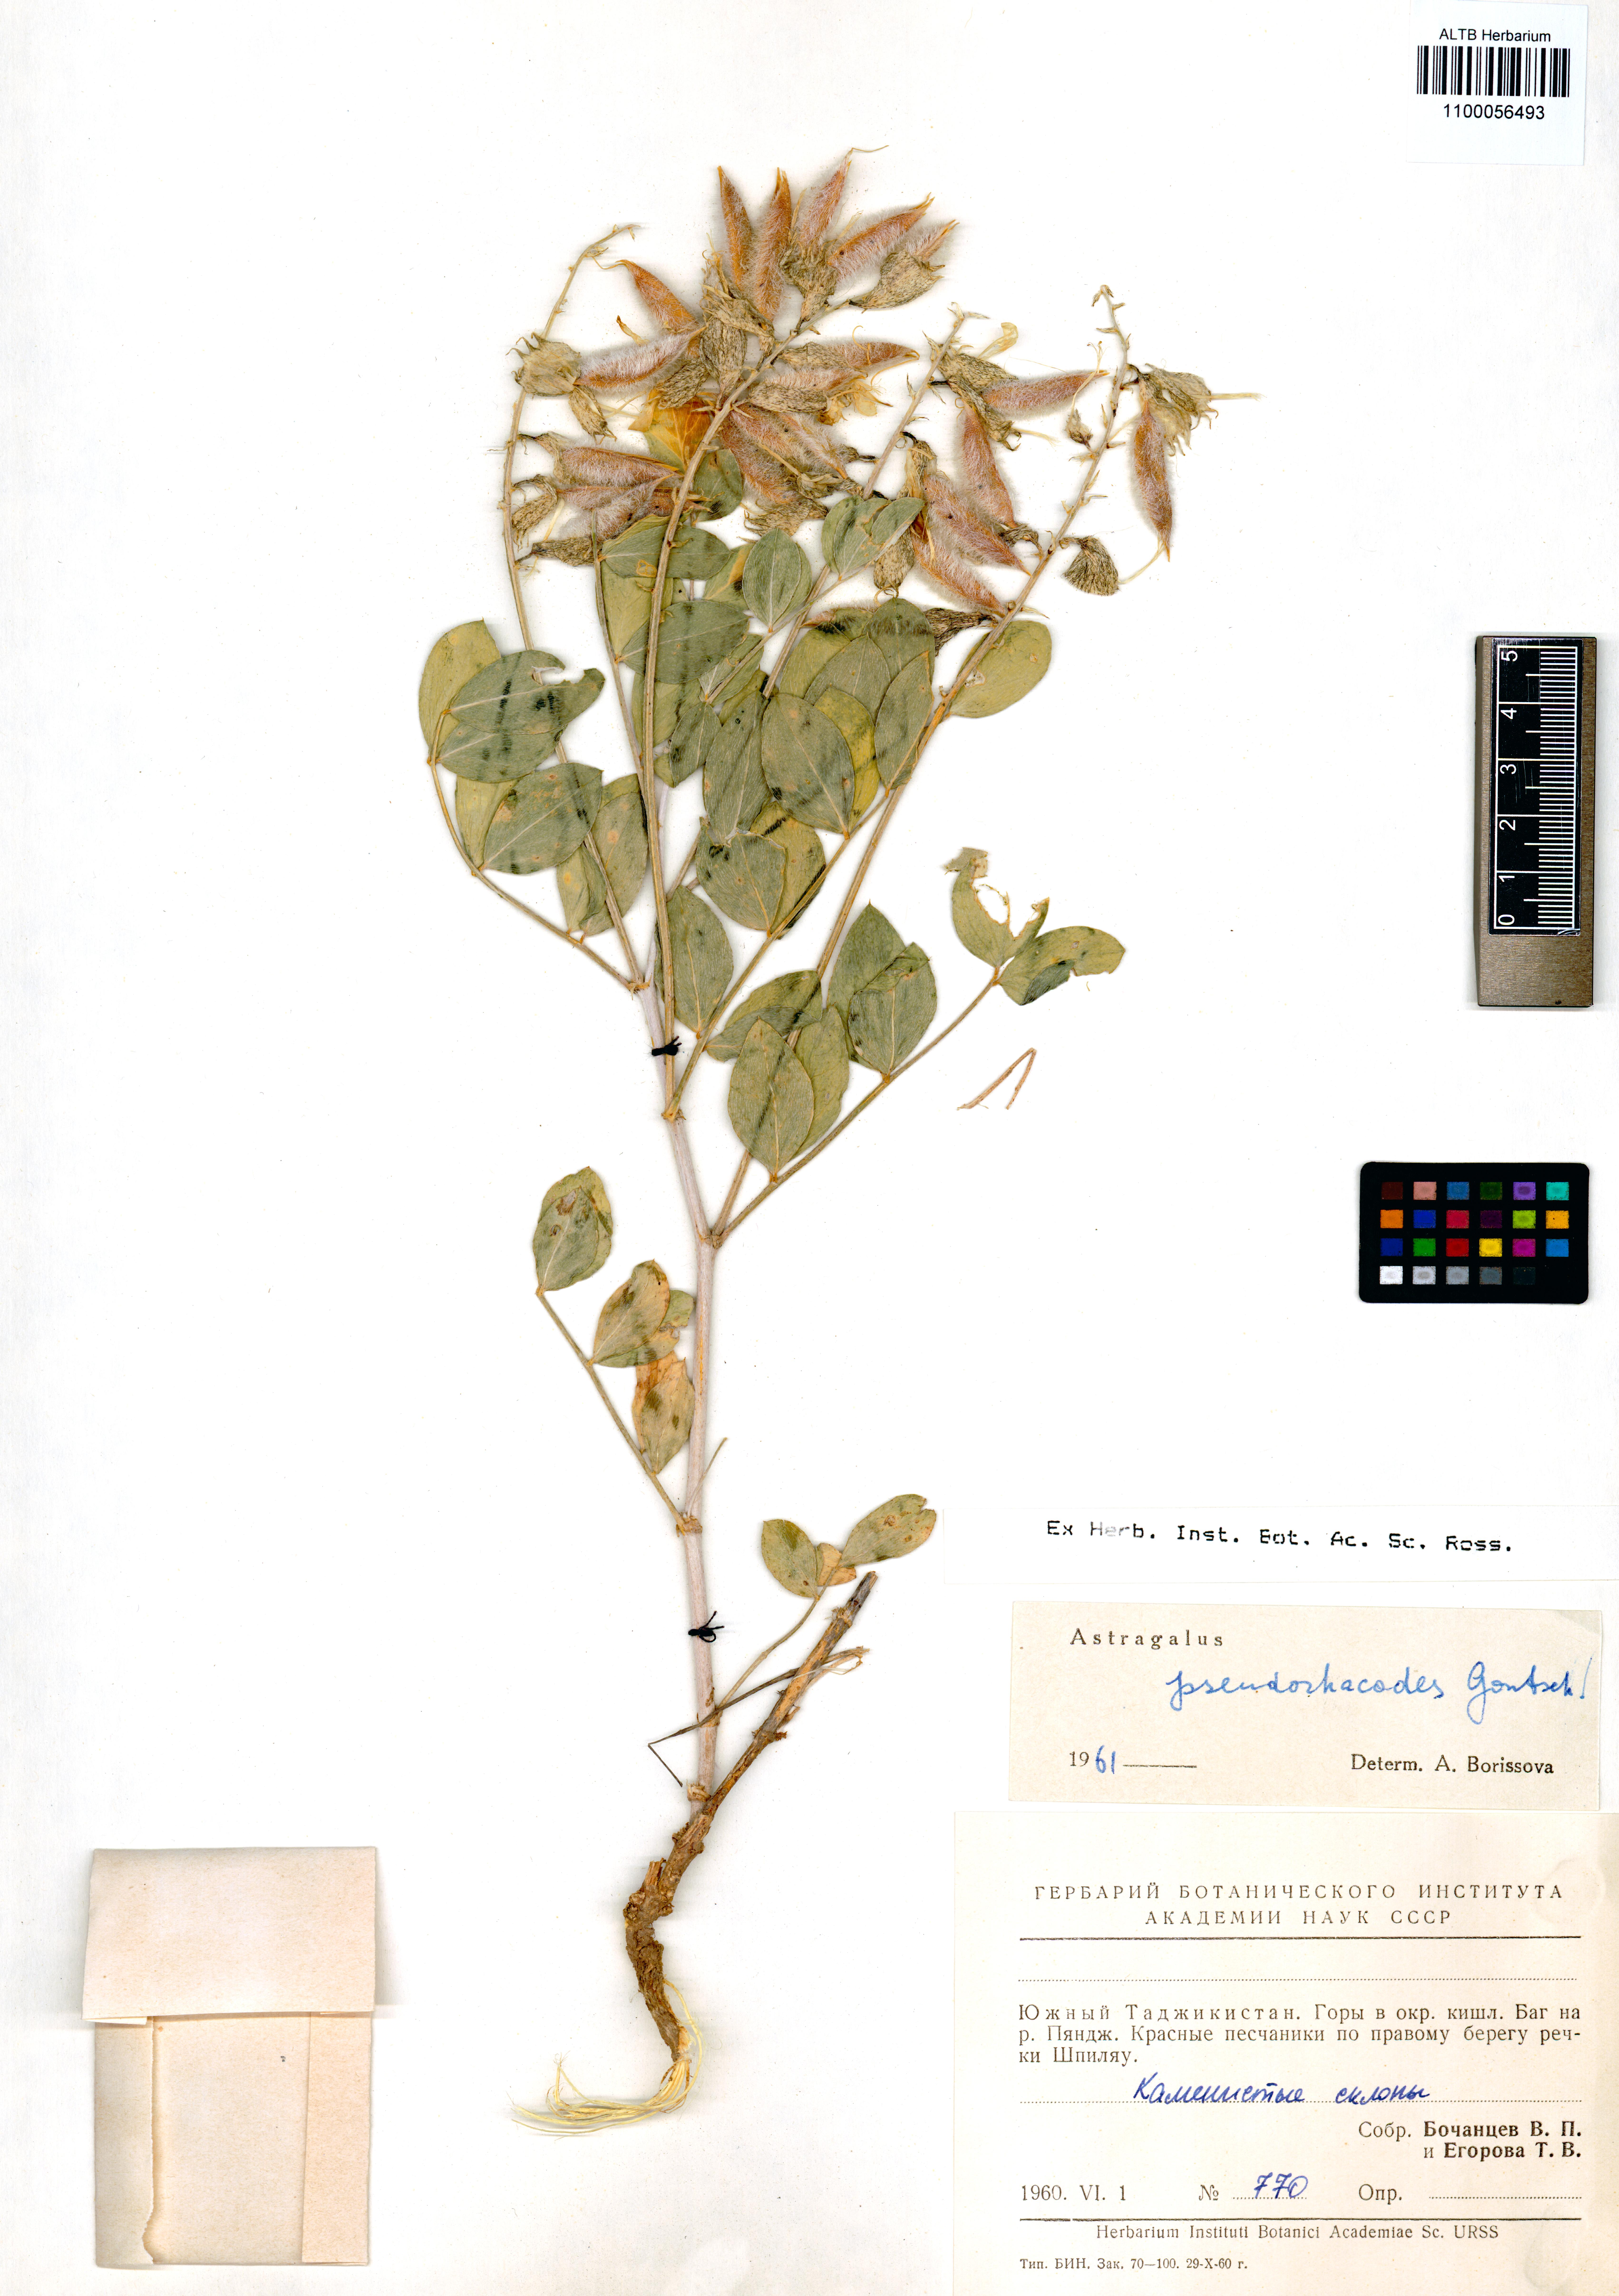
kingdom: Plantae
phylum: Tracheophyta
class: Magnoliopsida
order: Fabales
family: Fabaceae
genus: Astragalus
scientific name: Astragalus pseudorhacodes
